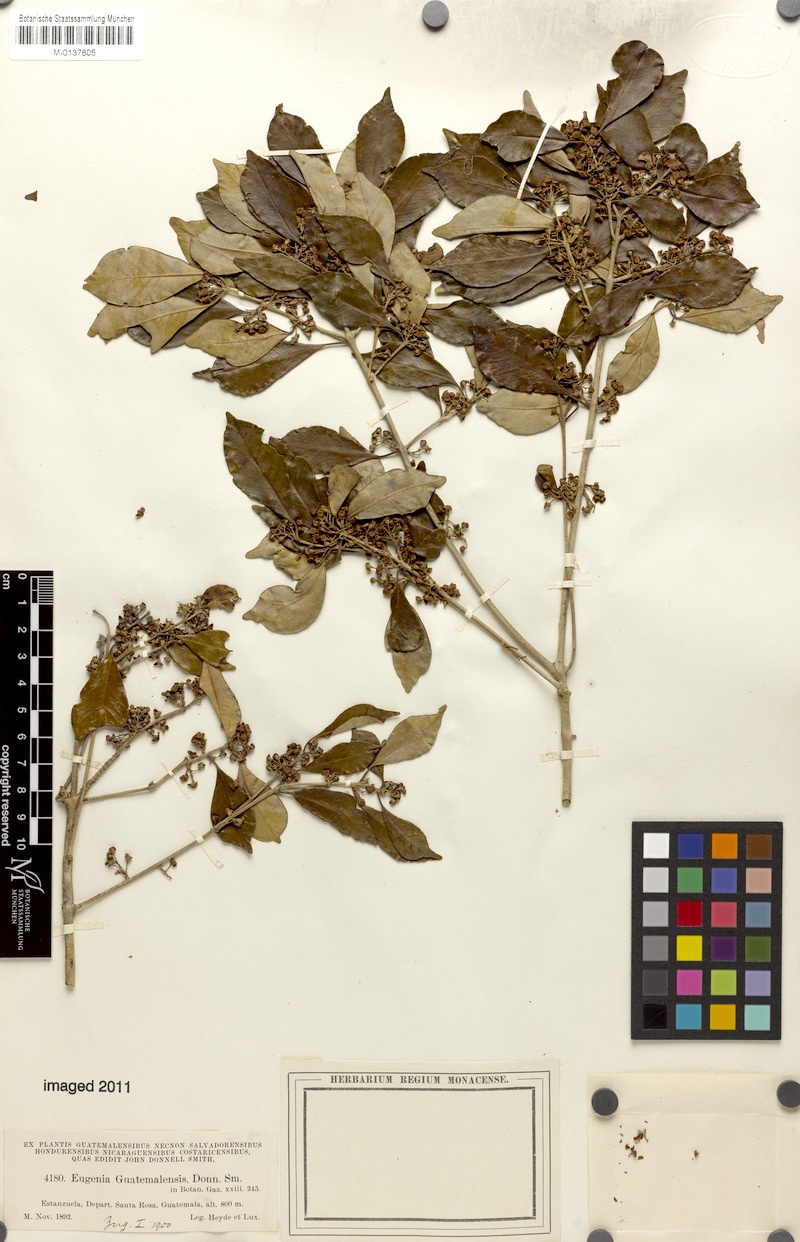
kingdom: Plantae
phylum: Tracheophyta
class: Magnoliopsida
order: Myrtales
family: Myrtaceae
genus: Eugenia
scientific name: Eugenia guatemalensis
